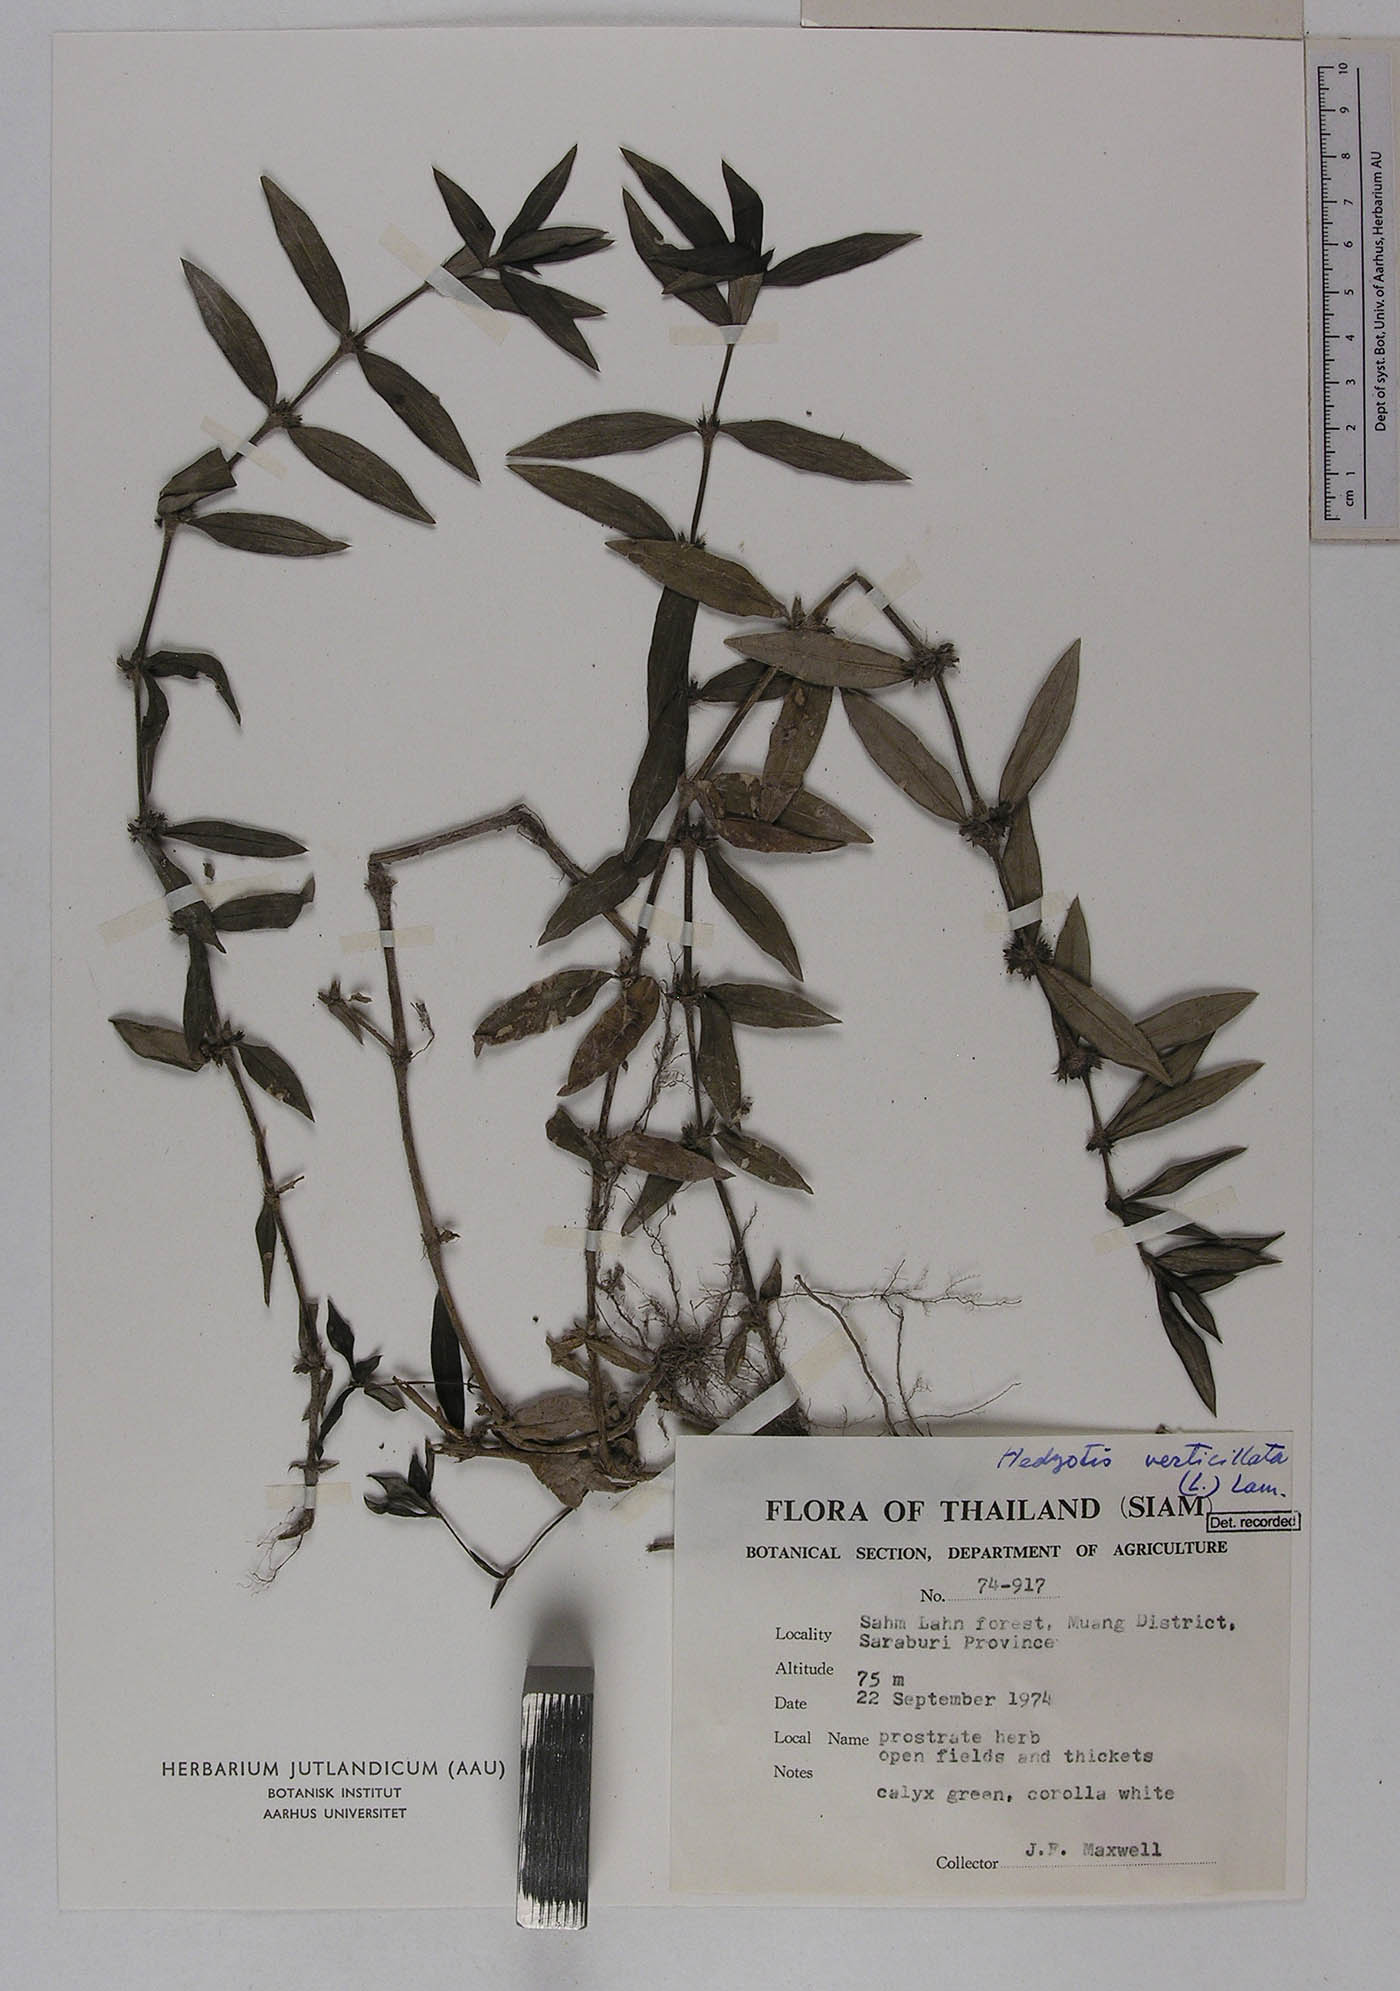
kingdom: Plantae
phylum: Tracheophyta
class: Magnoliopsida
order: Gentianales
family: Rubiaceae
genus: Scleromitrion
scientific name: Scleromitrion verticillatum
